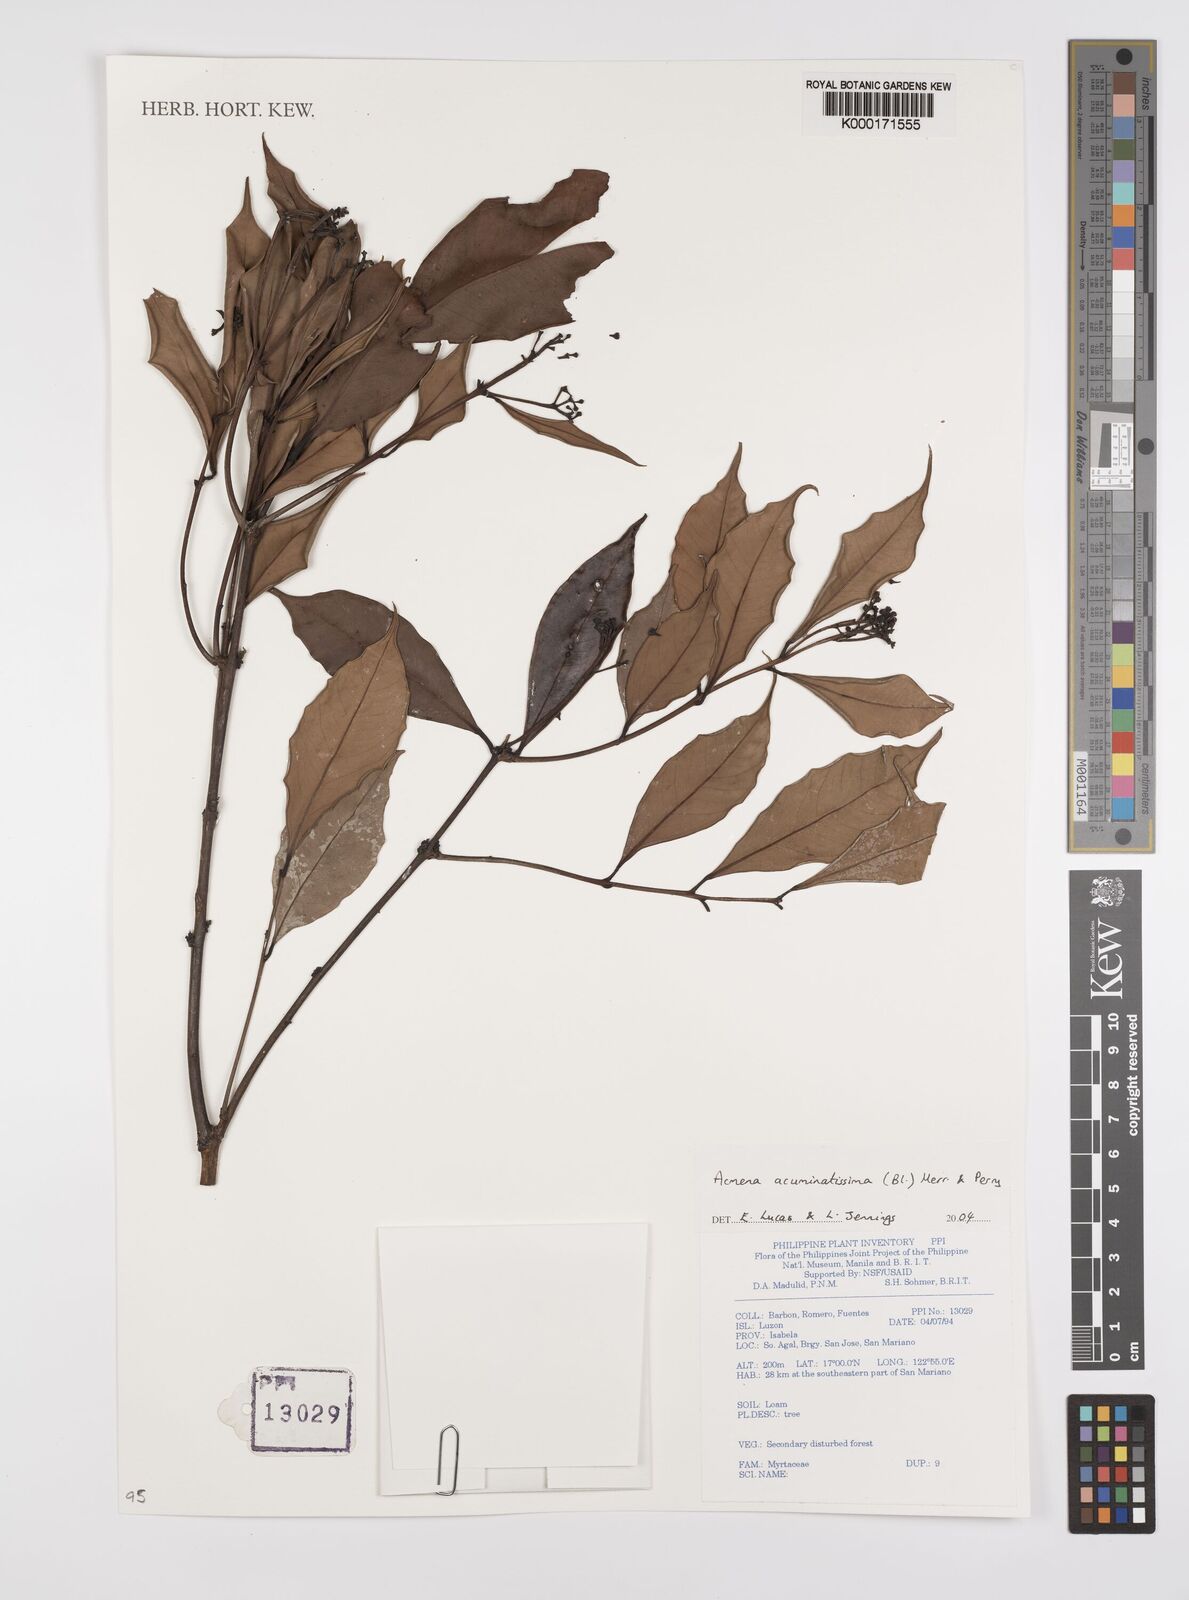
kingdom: Plantae
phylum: Tracheophyta
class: Magnoliopsida
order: Myrtales
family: Myrtaceae
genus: Syzygium
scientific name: Syzygium acuminatissimum
